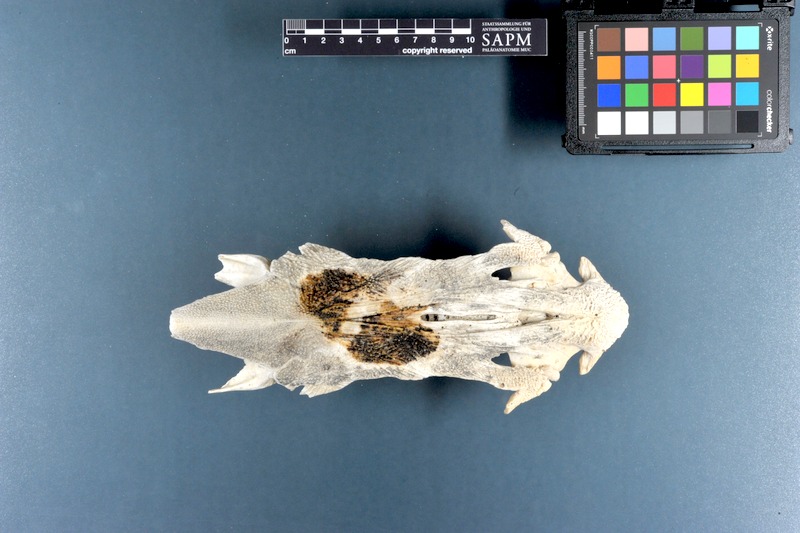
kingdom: Animalia
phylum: Chordata
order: Siluriformes
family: Ariidae
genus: Netuma
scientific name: Netuma thalassina
